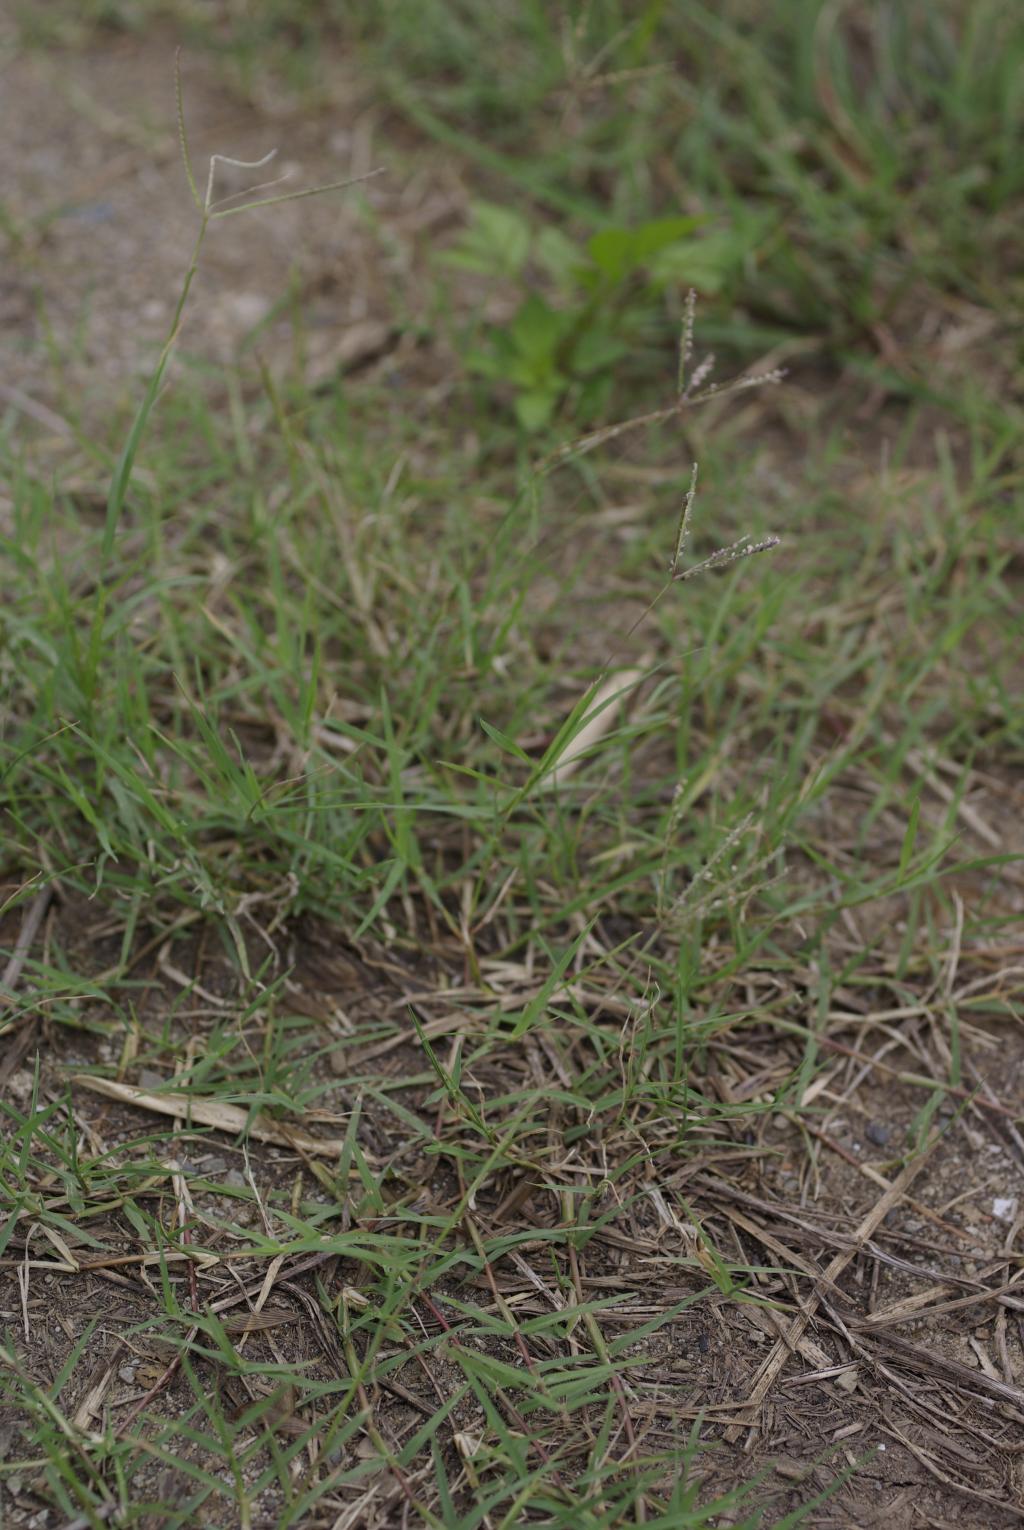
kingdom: Plantae
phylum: Tracheophyta
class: Liliopsida
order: Poales
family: Poaceae
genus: Cynodon
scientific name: Cynodon dactylon
